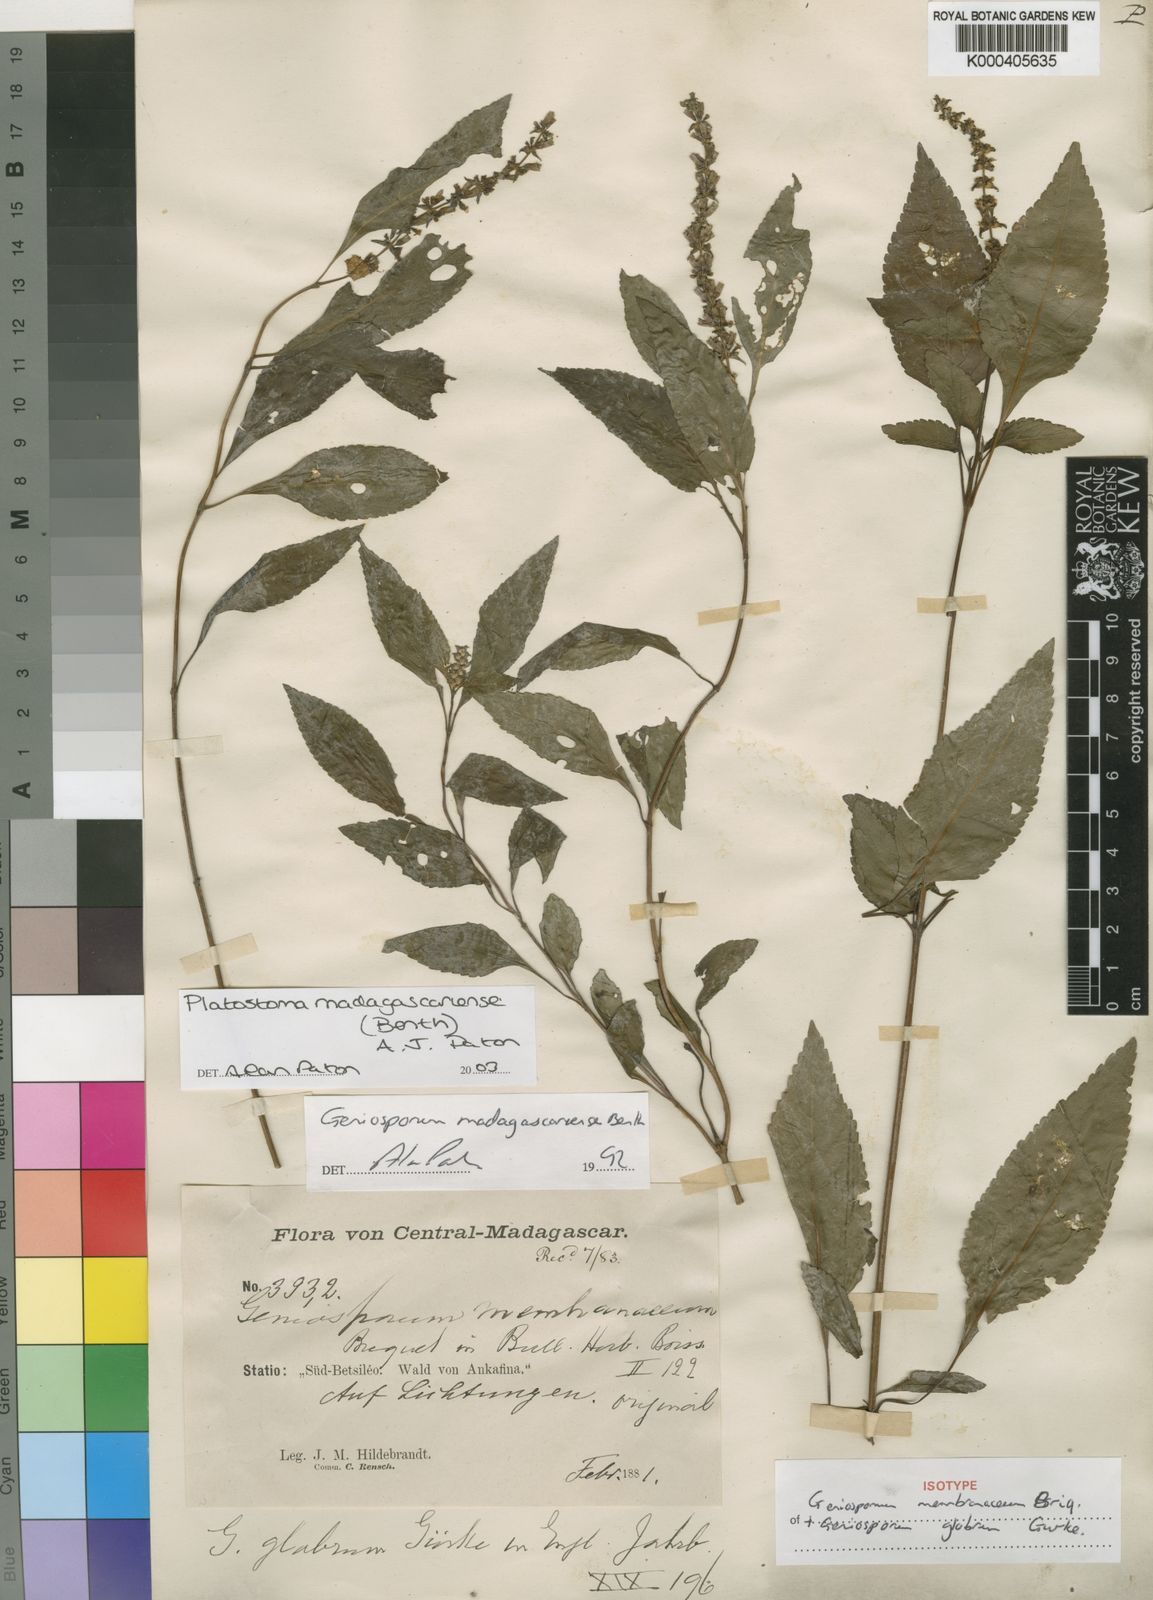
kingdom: Plantae
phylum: Tracheophyta
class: Magnoliopsida
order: Lamiales
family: Lamiaceae
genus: Platostoma
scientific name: Platostoma madagascariense
